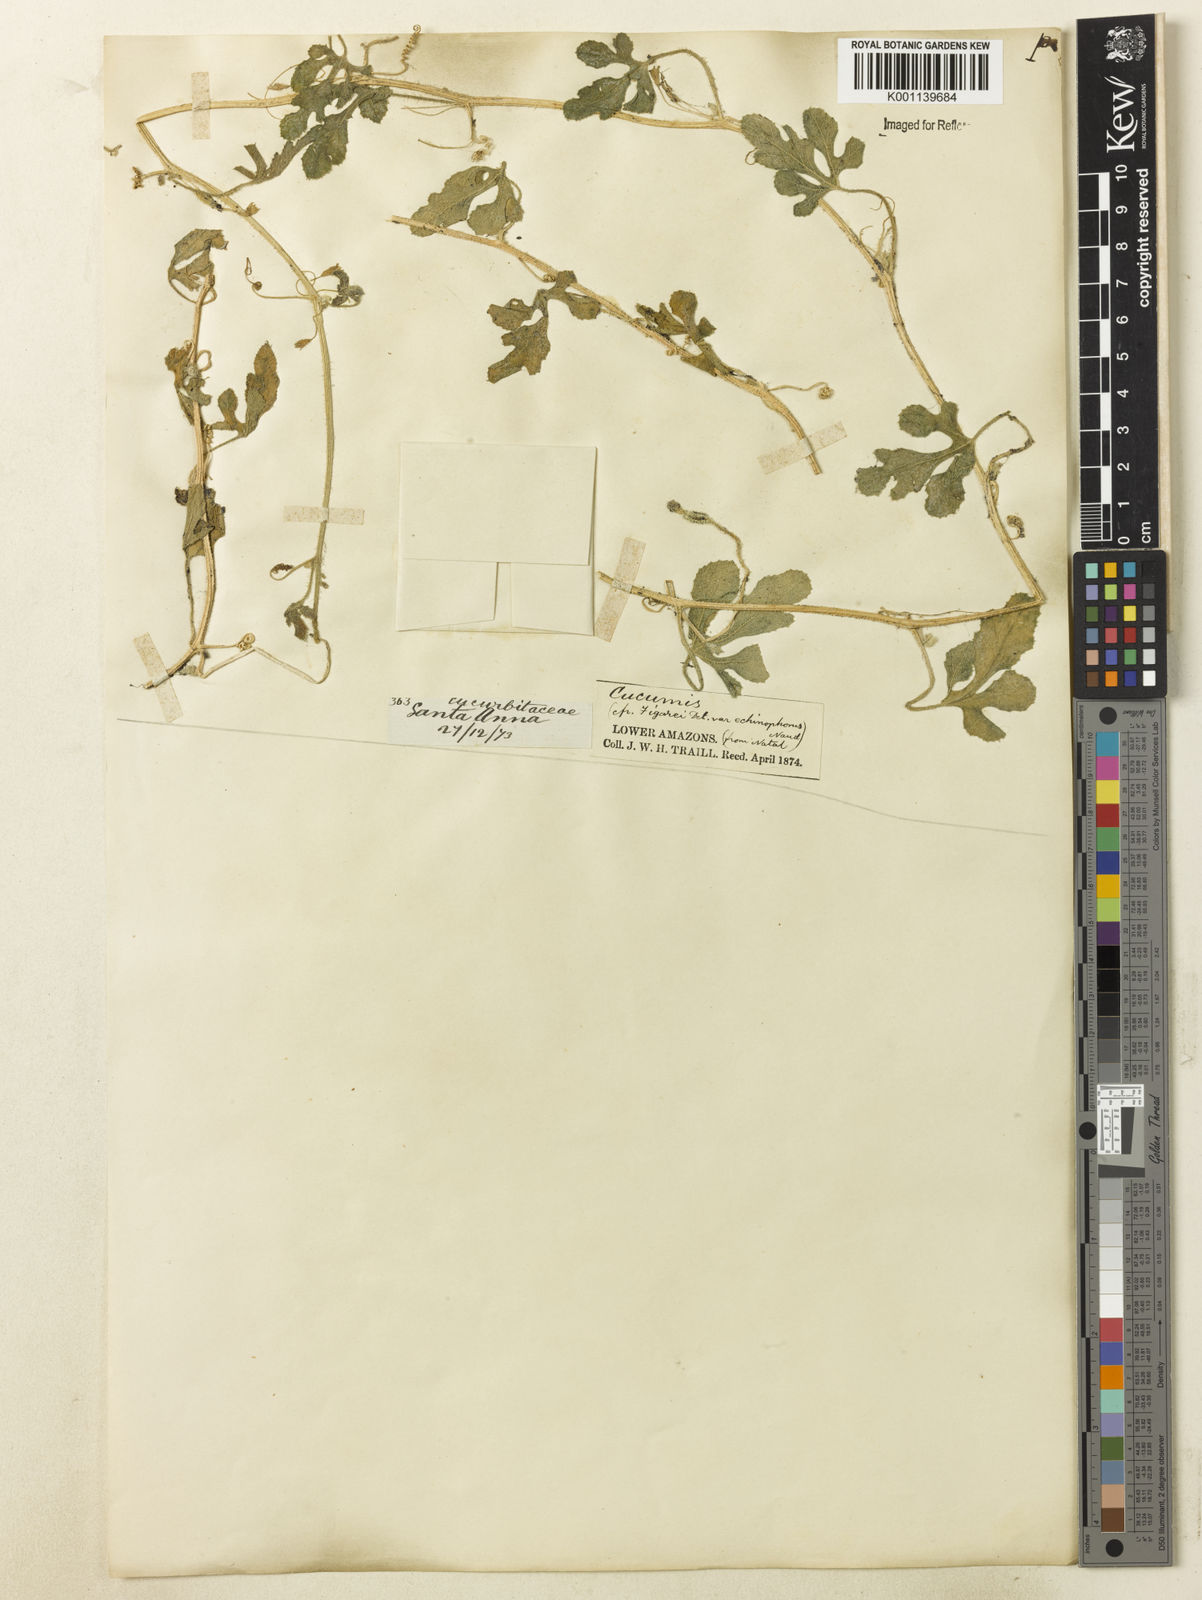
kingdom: Plantae
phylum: Tracheophyta
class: Magnoliopsida
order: Cucurbitales
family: Cucurbitaceae
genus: Cucumis
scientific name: Cucumis anguria
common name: West indian gherkin
